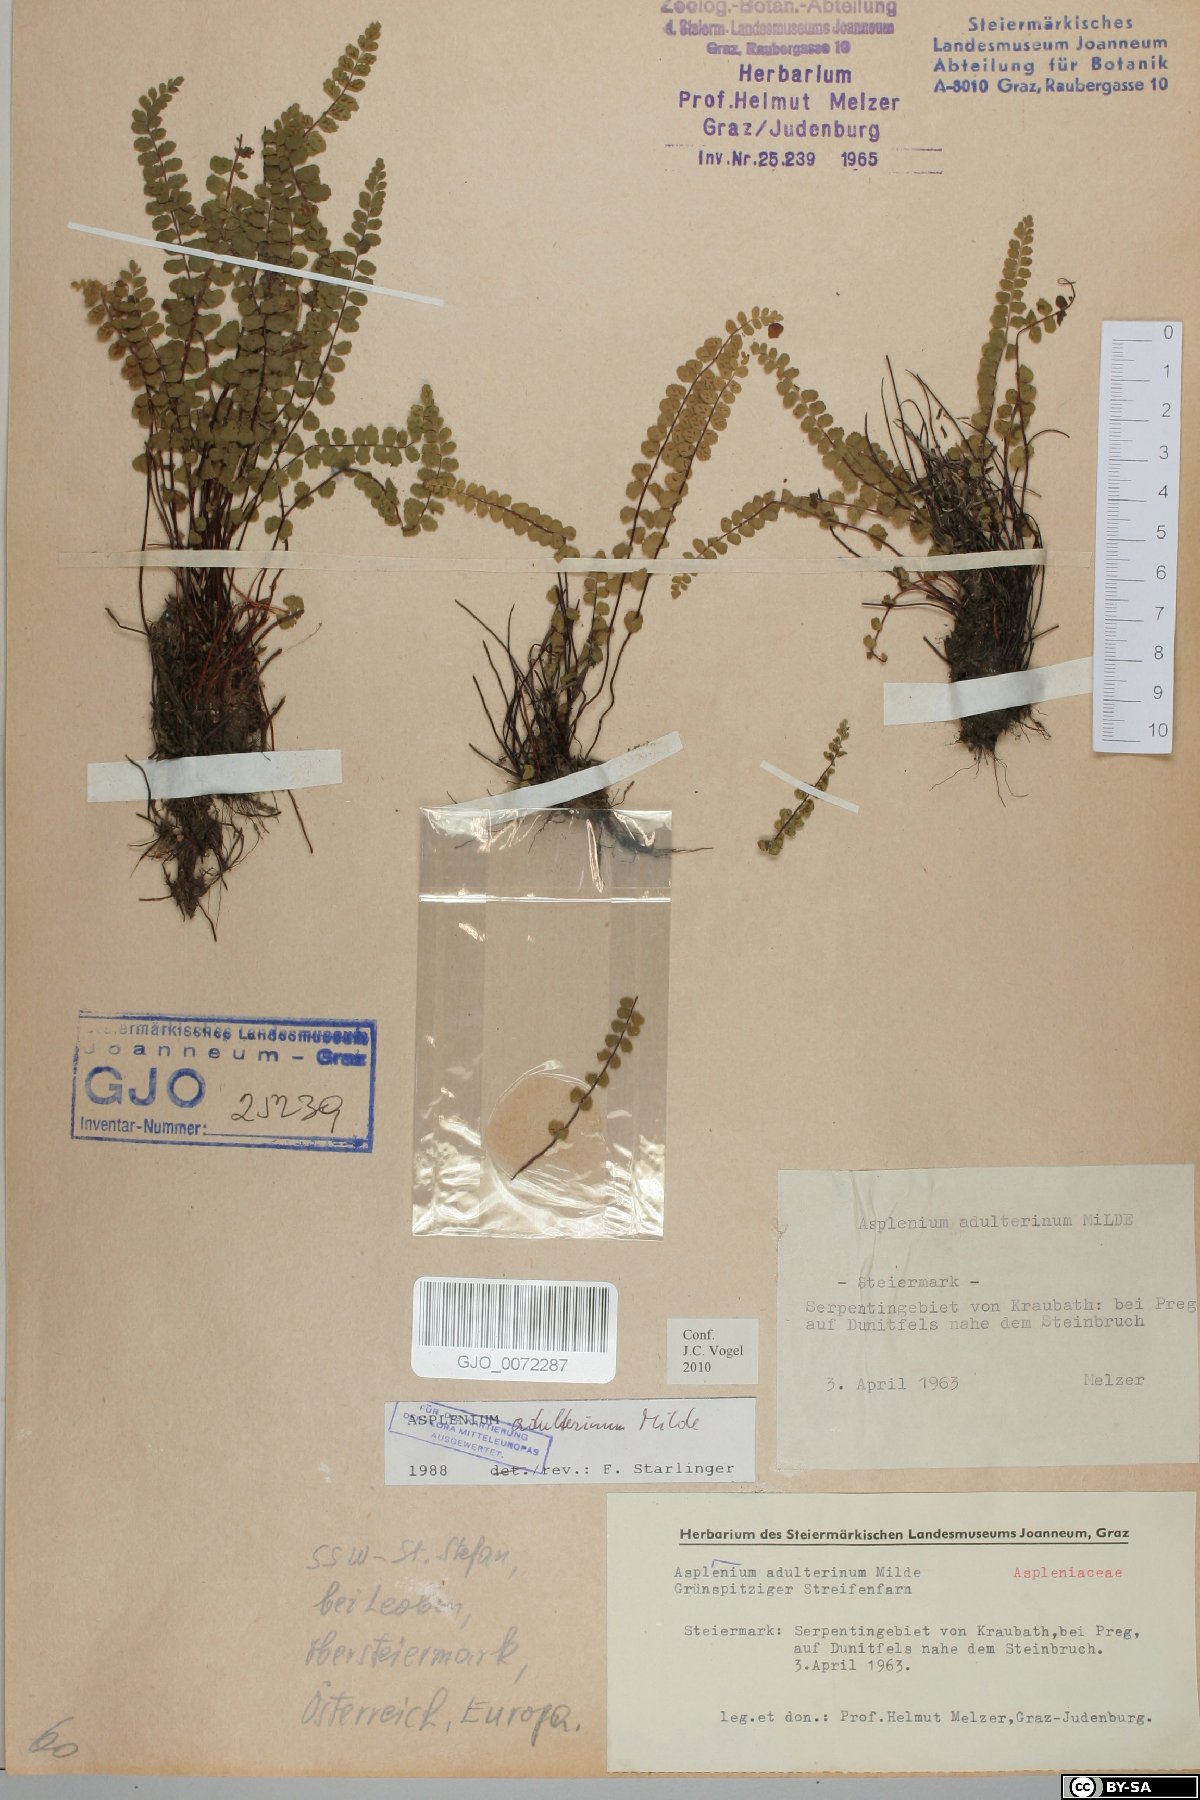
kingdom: Plantae
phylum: Tracheophyta
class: Polypodiopsida
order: Polypodiales
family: Aspleniaceae
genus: Asplenium
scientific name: Asplenium adulterinum
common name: Adulterated spleenwort
